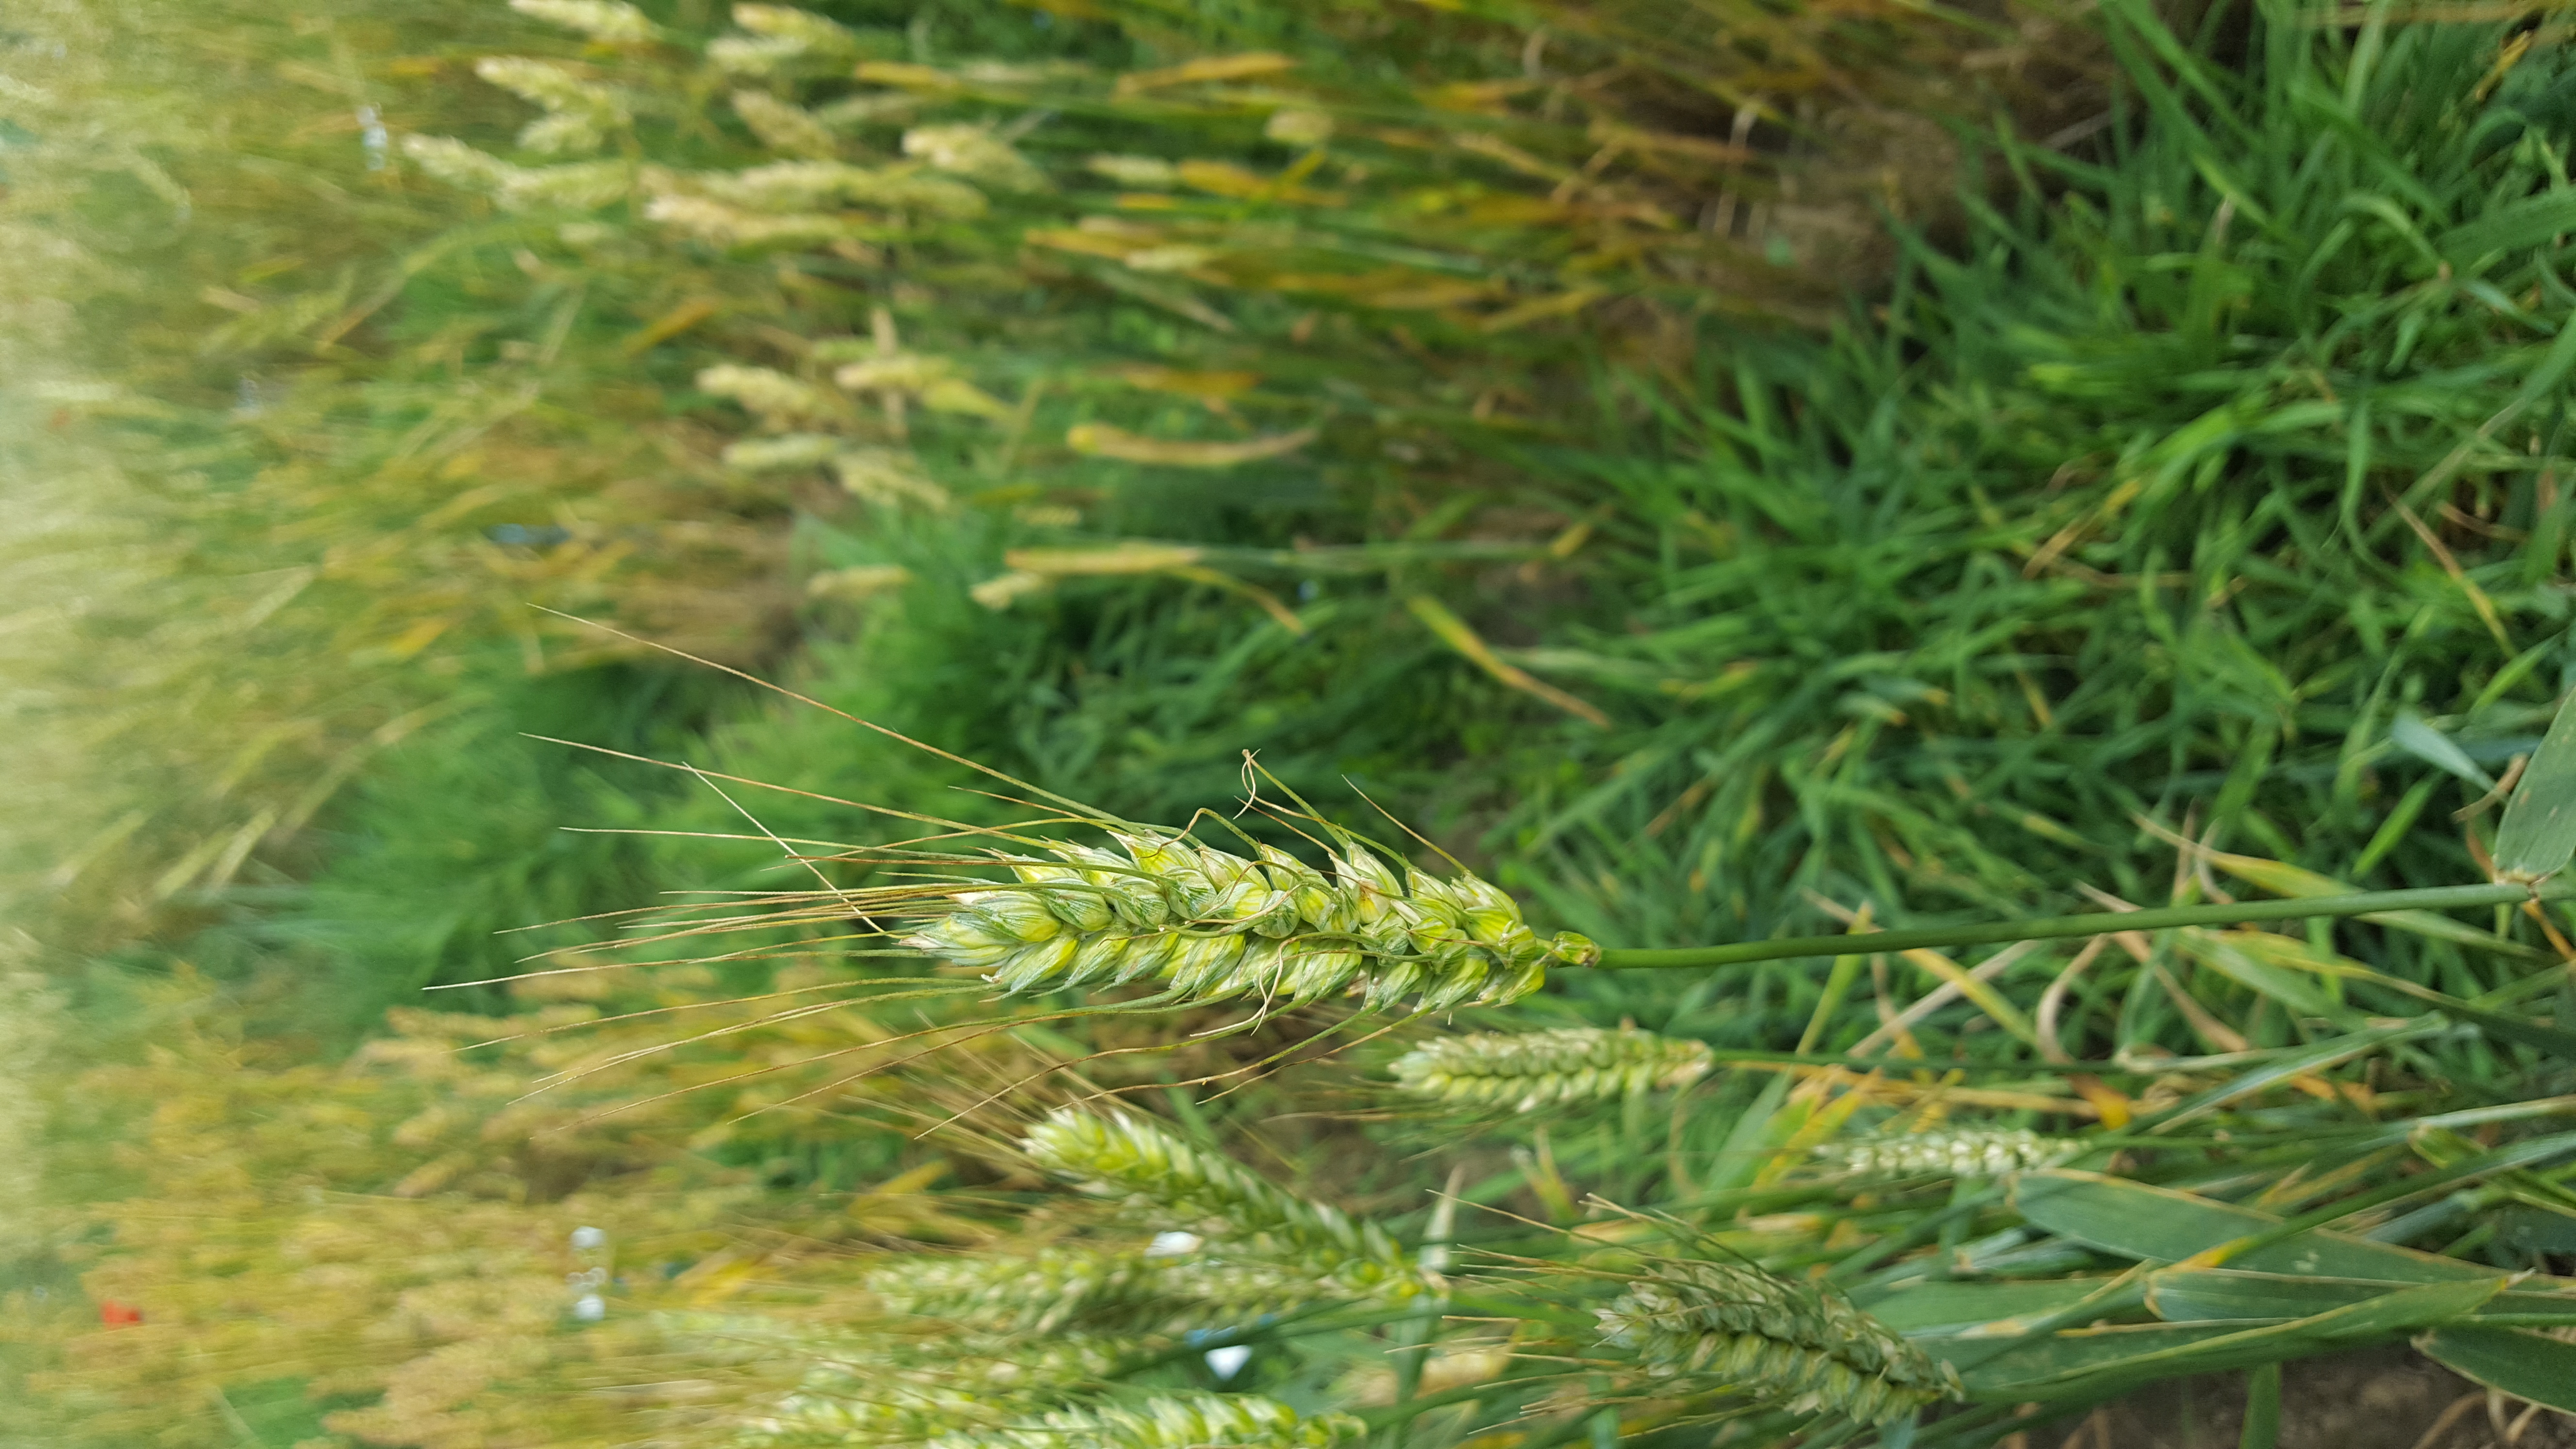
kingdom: Plantae
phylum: Tracheophyta
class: Liliopsida
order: Poales
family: Poaceae
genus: Triticum
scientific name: Triticum aestivum
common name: Common wheat
